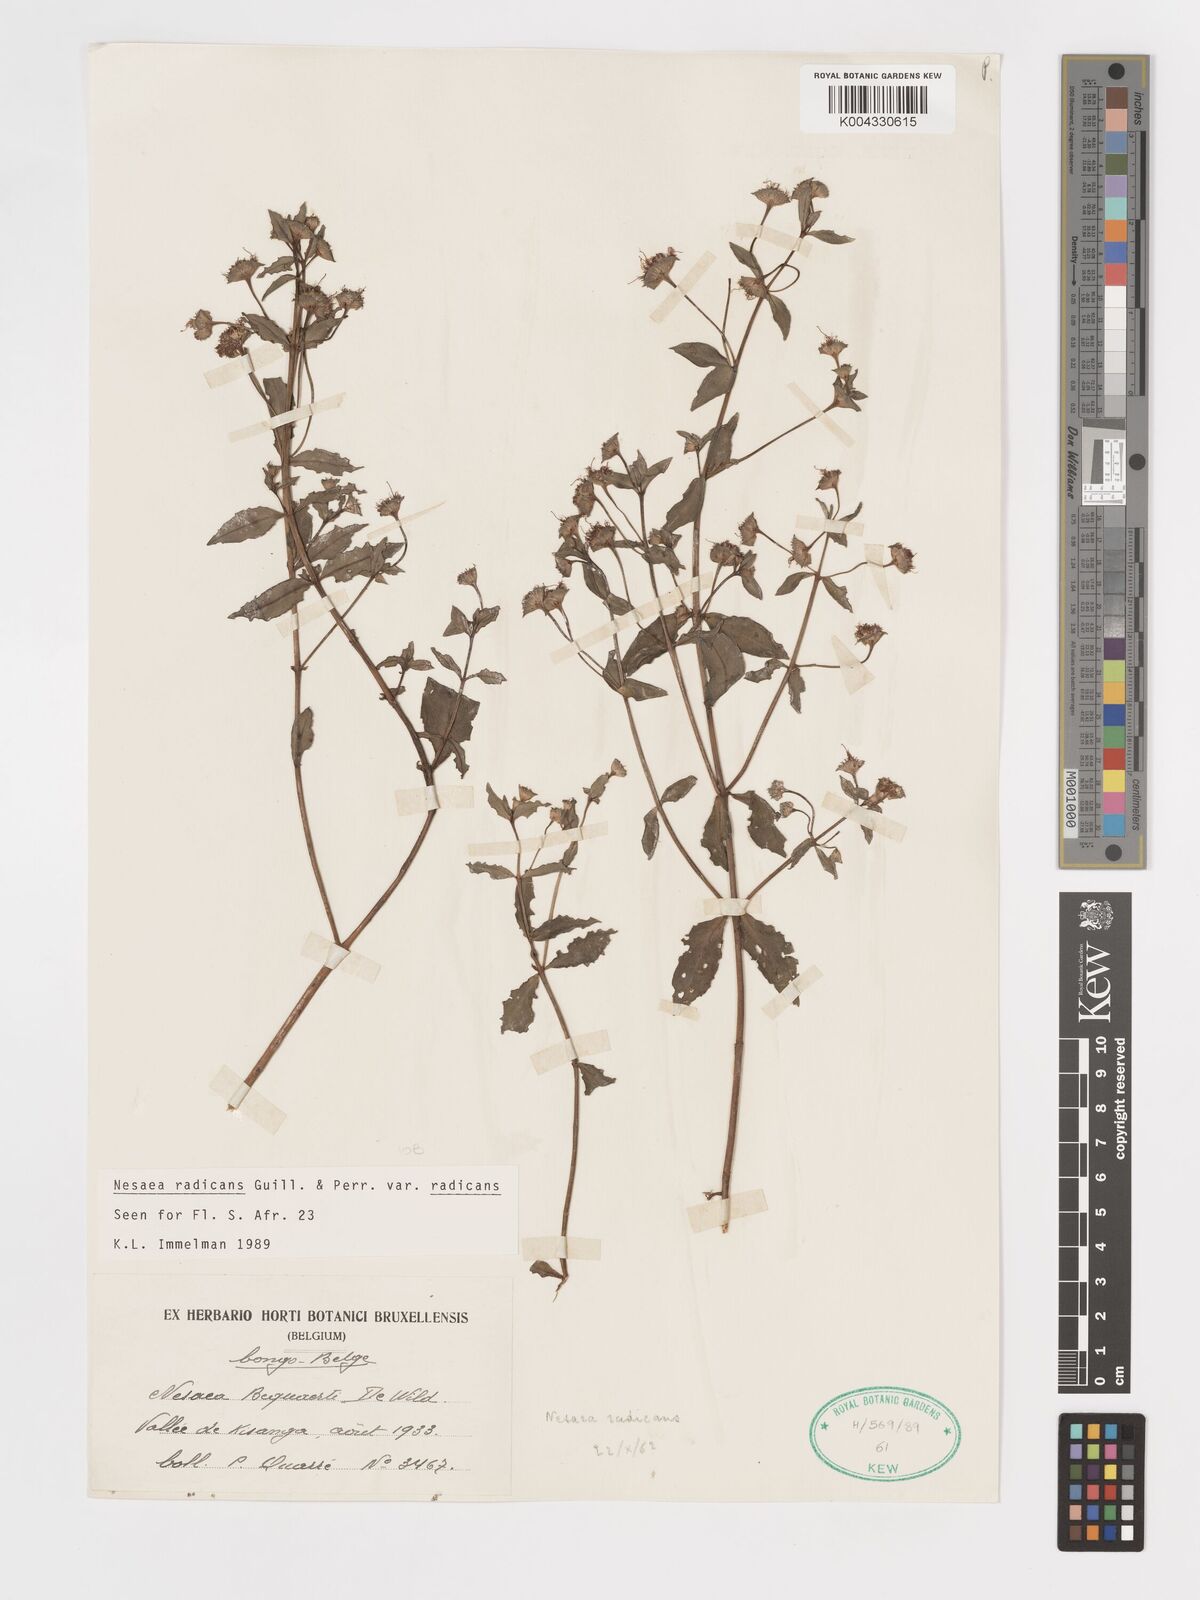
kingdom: Plantae
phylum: Tracheophyta
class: Magnoliopsida
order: Myrtales
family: Lythraceae
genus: Ammannia
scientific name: Ammannia radicans
